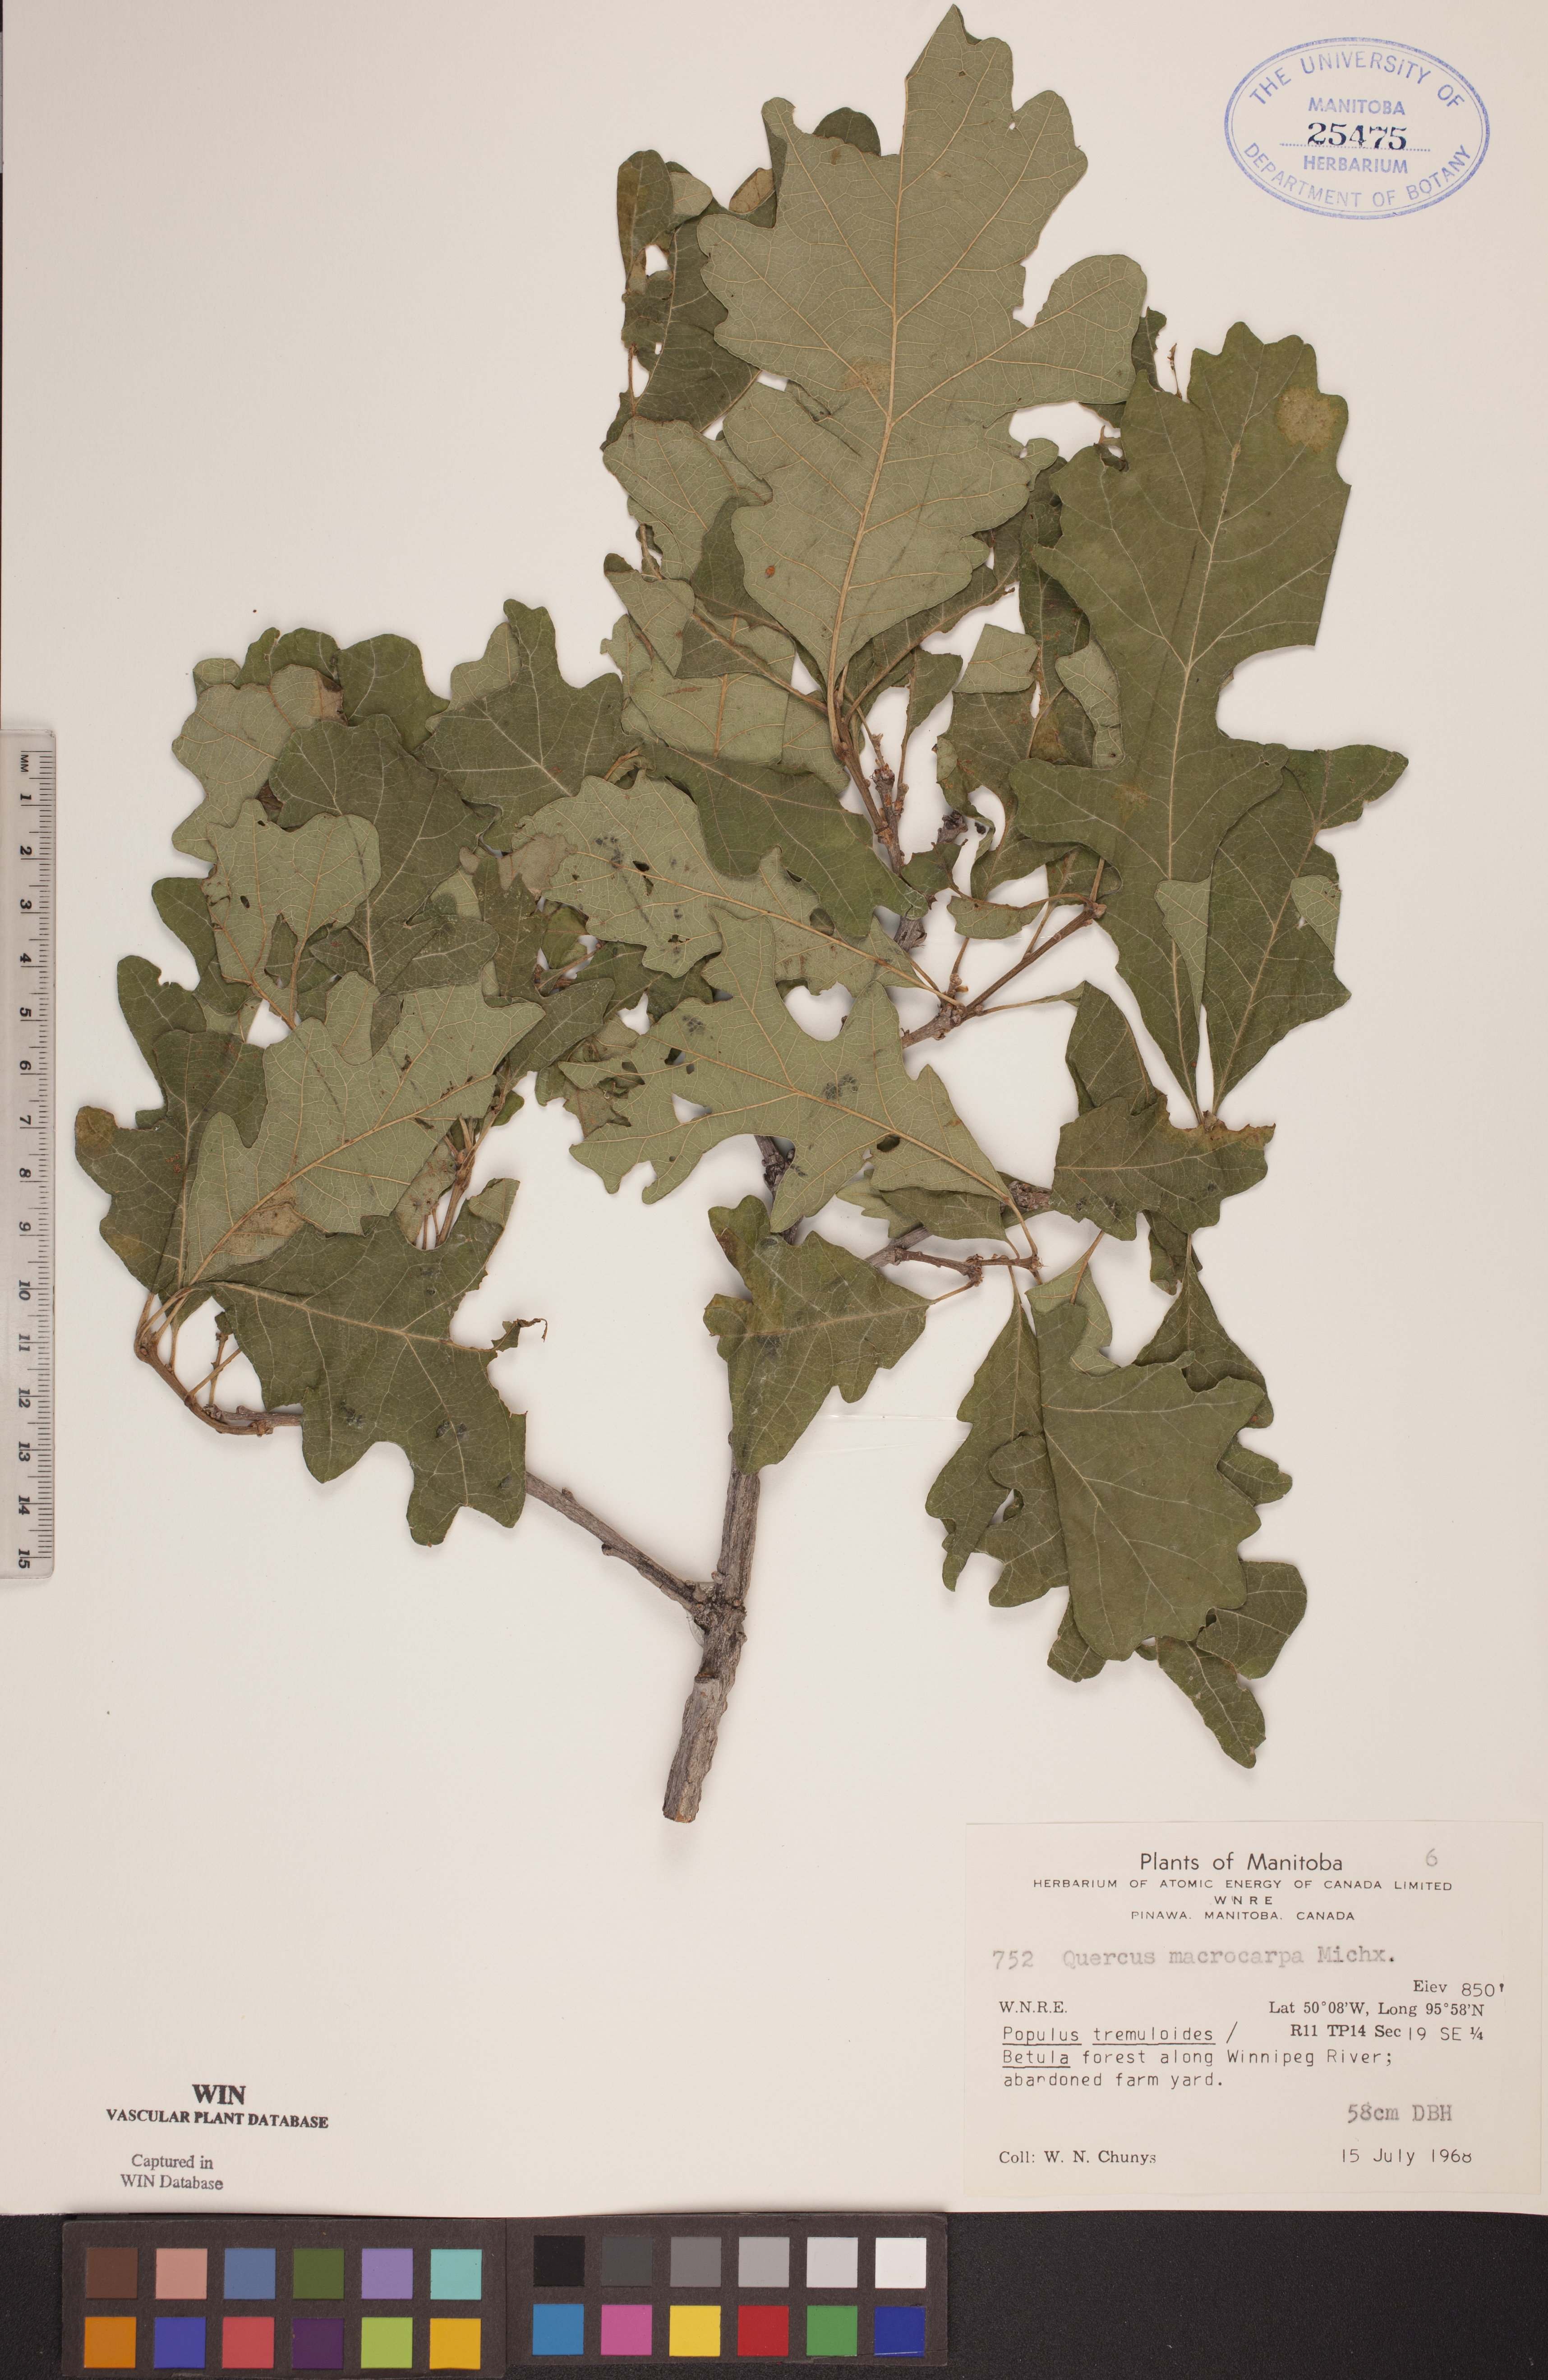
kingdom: Plantae
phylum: Tracheophyta
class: Magnoliopsida
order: Fagales
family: Fagaceae
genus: Quercus
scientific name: Quercus macrocarpa
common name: Bur oak
